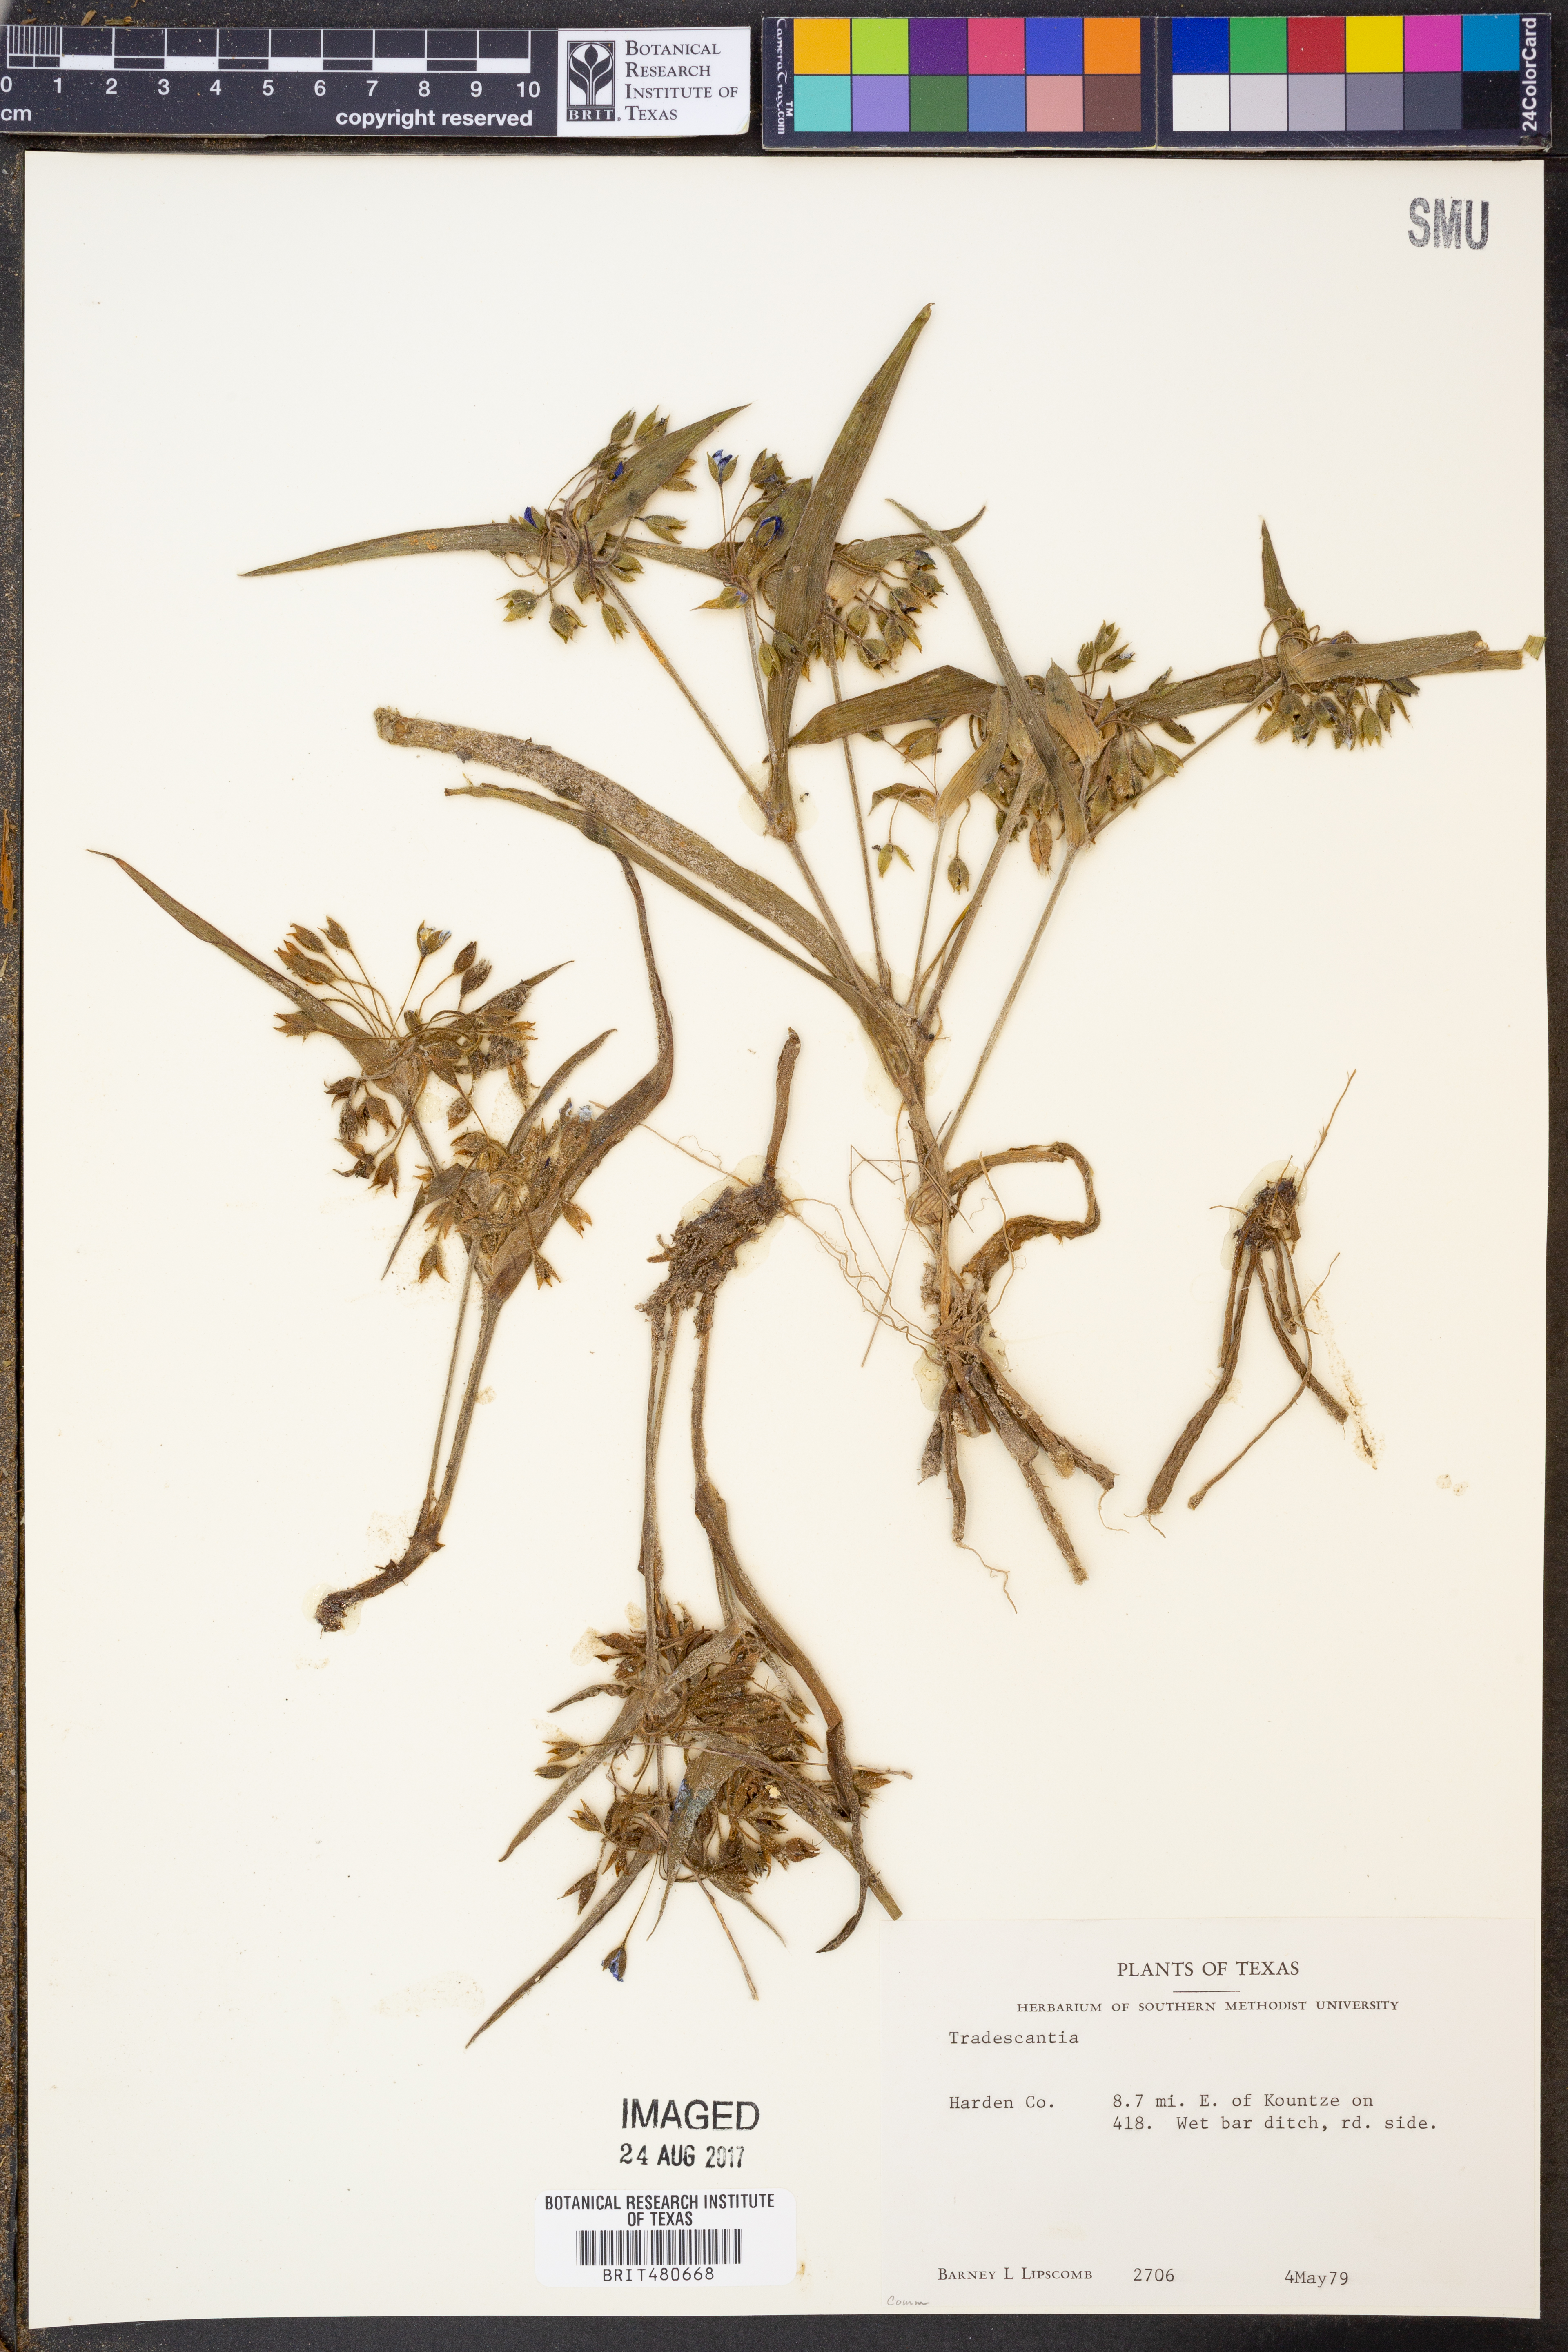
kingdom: Plantae
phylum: Tracheophyta
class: Liliopsida
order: Commelinales
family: Commelinaceae
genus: Tradescantia
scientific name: Tradescantia
